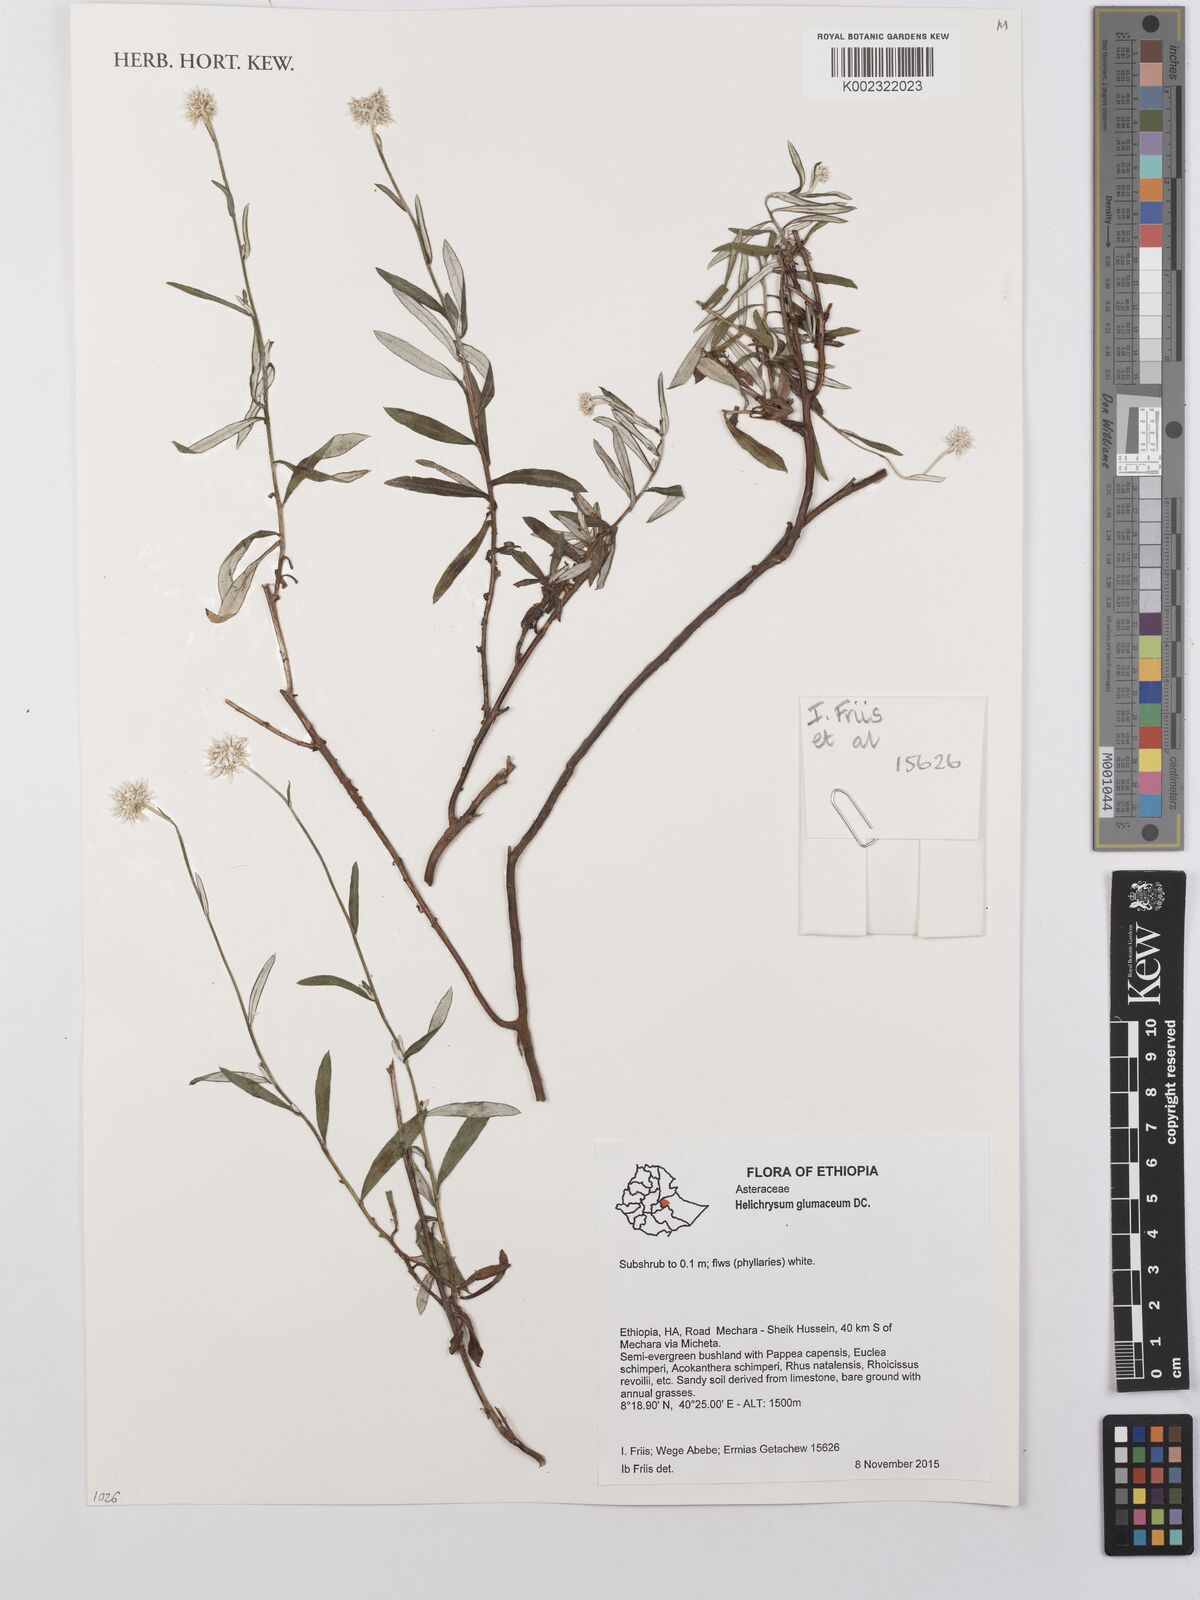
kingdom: Plantae
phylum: Tracheophyta
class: Magnoliopsida
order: Asterales
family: Asteraceae
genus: Helichrysum
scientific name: Helichrysum glumaceum
